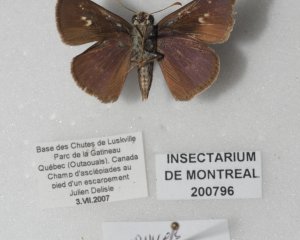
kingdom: Animalia
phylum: Arthropoda
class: Insecta
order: Lepidoptera
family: Hesperiidae
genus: Euphyes
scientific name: Euphyes vestris
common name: Dun Skipper
